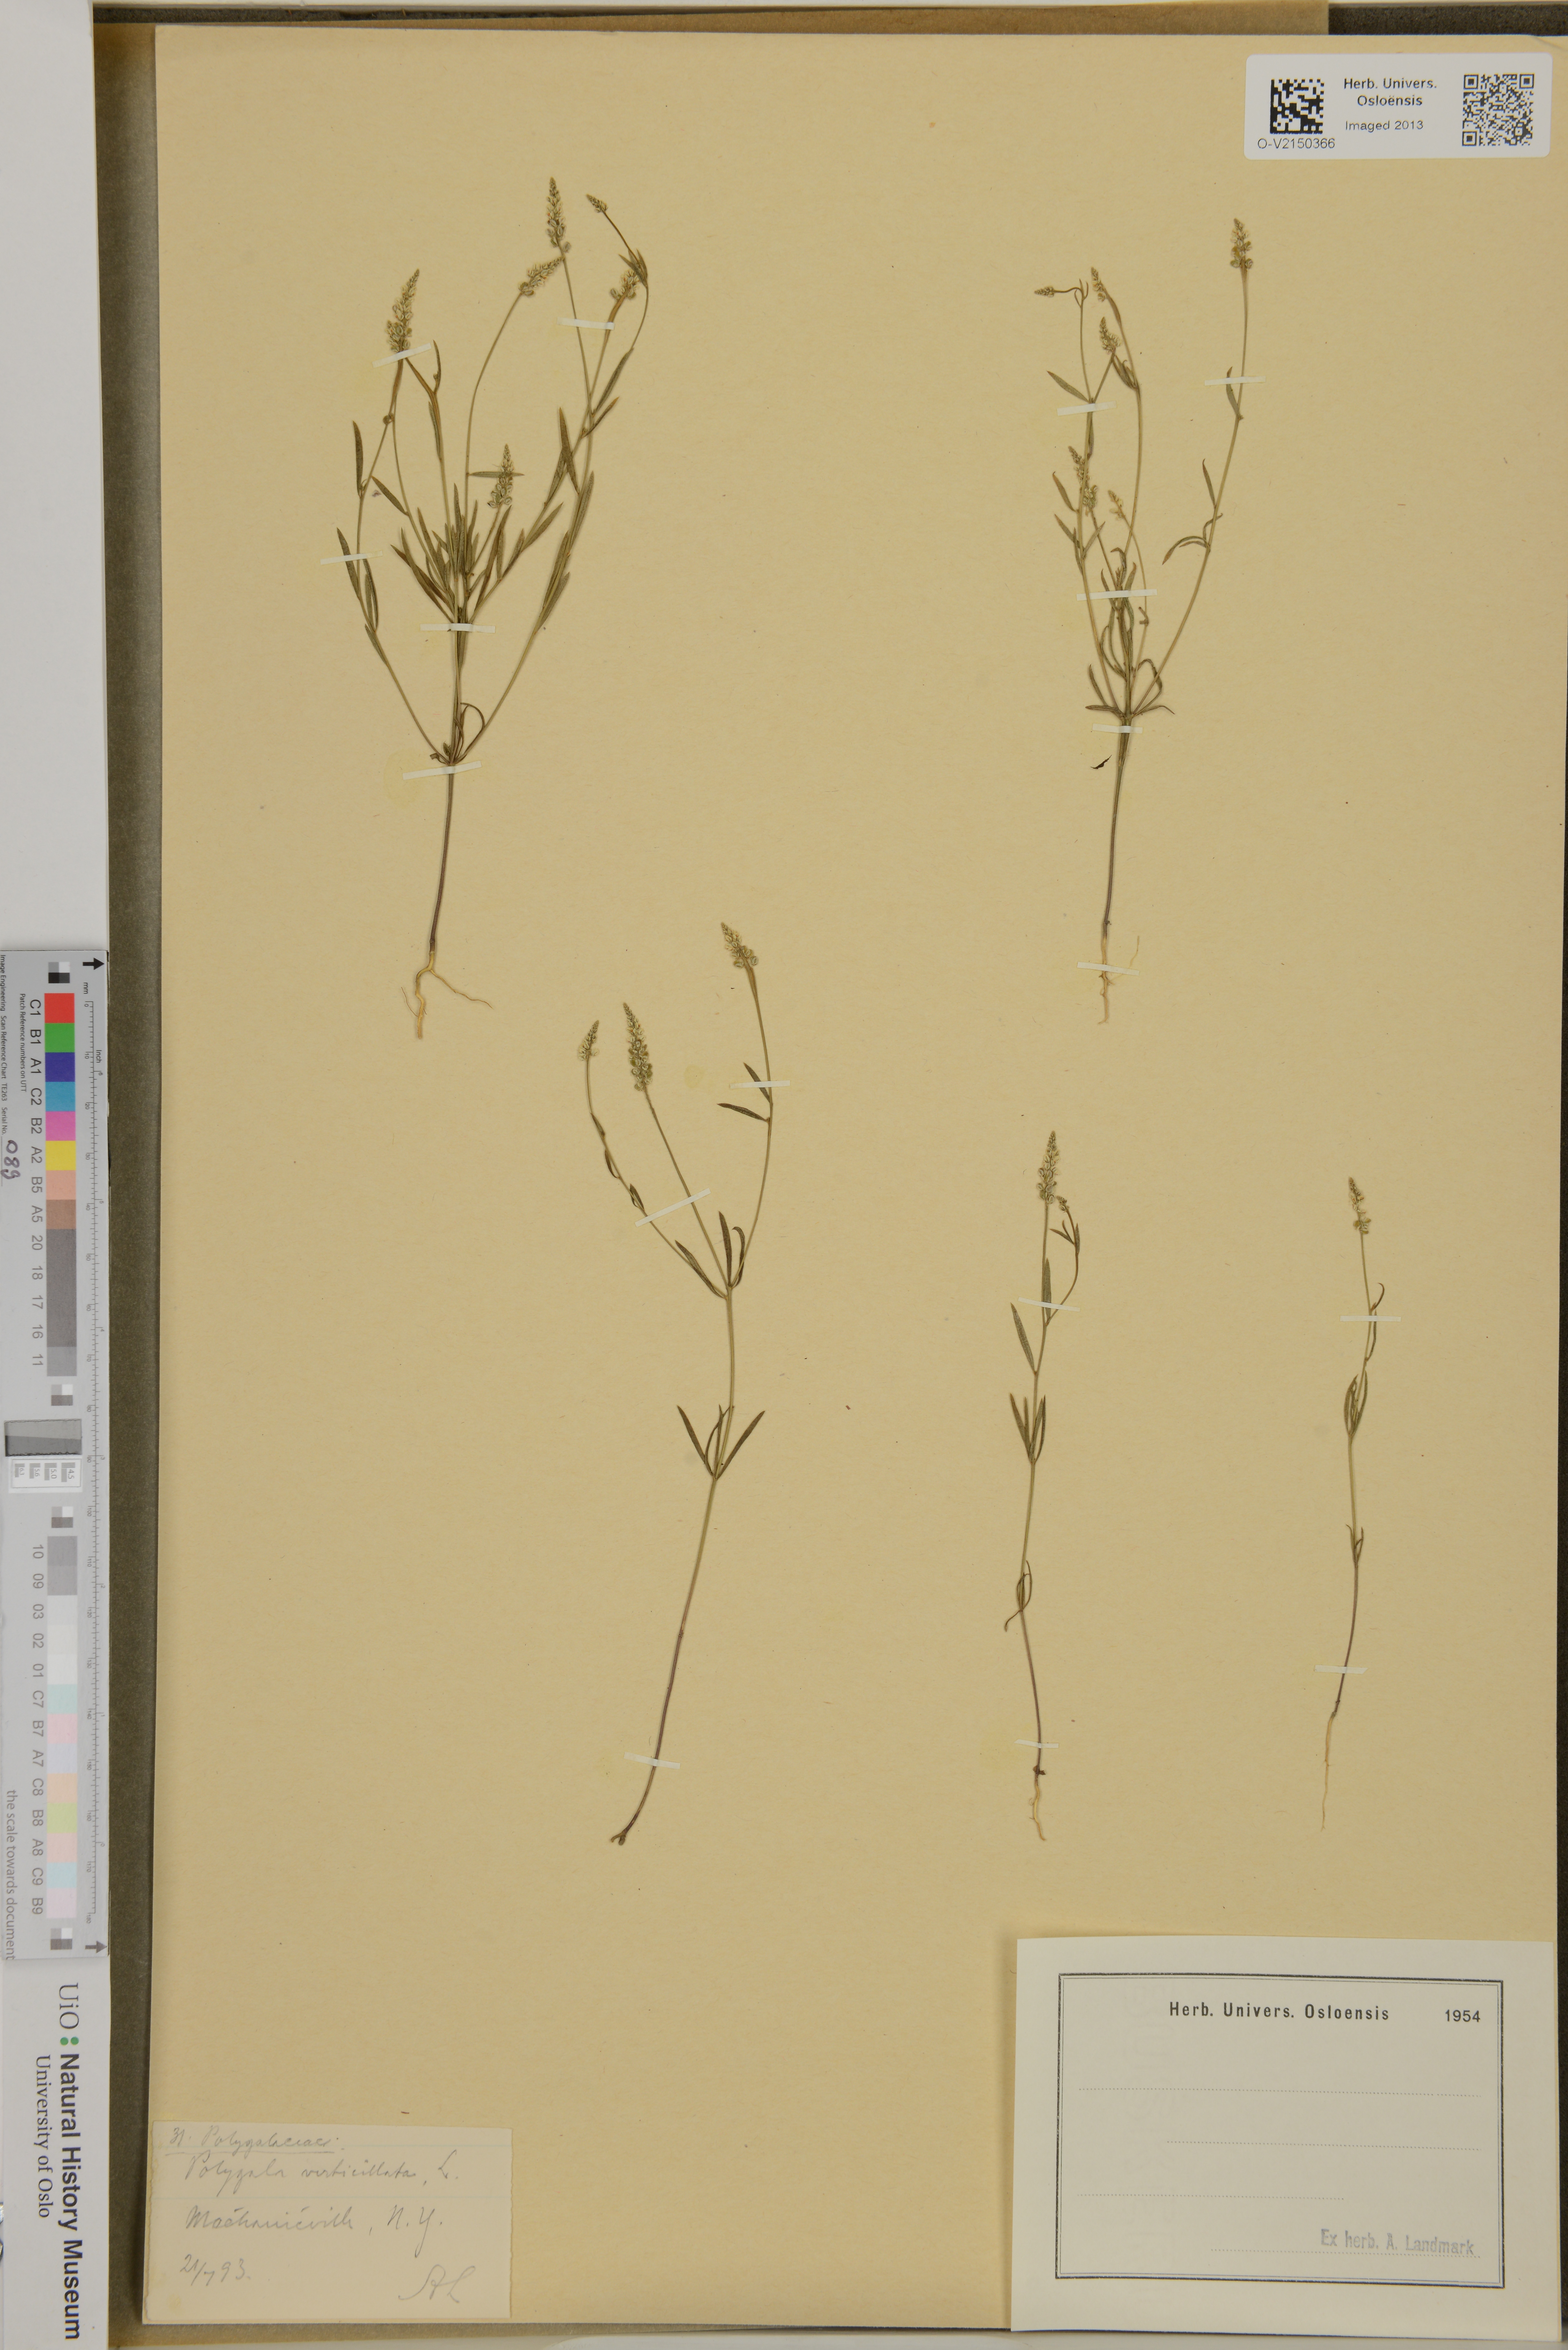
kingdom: Plantae
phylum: Tracheophyta
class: Magnoliopsida
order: Fabales
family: Polygalaceae
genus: Polygala
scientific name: Polygala verticillata
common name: Whorl milkwort
